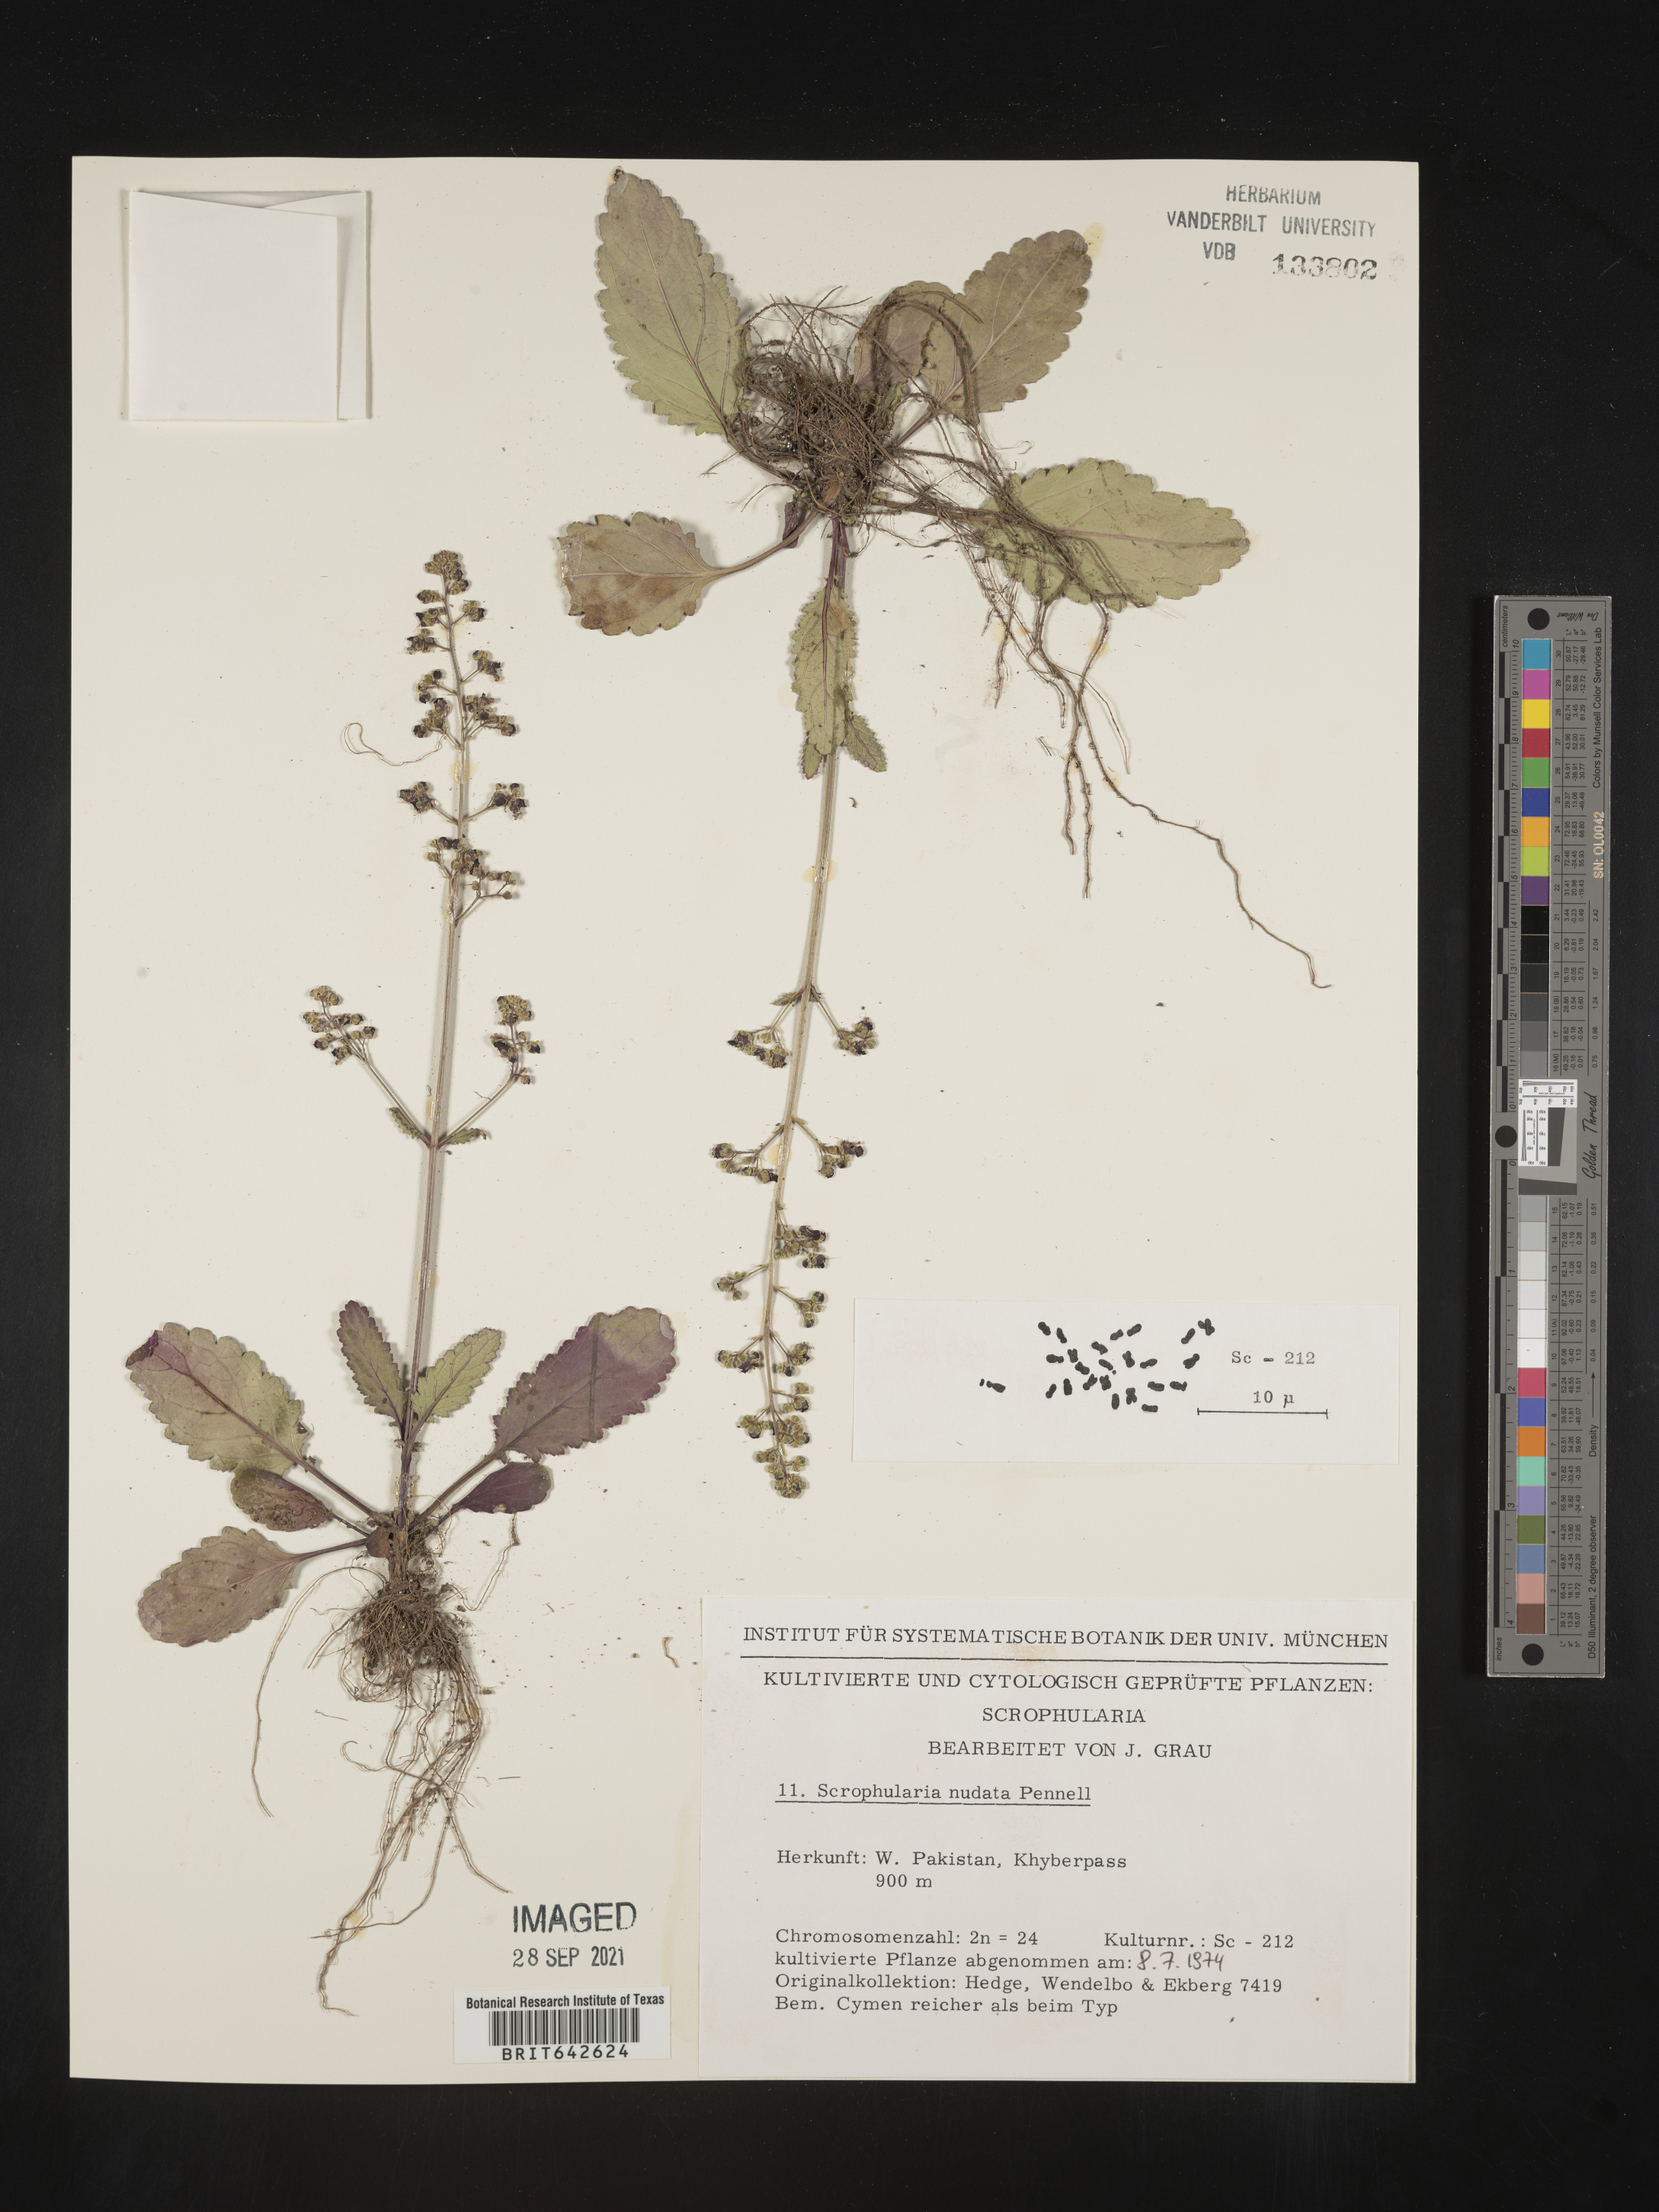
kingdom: Plantae
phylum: Tracheophyta
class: Magnoliopsida
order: Lamiales
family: Scrophulariaceae
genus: Scrophularia
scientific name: Scrophularia
